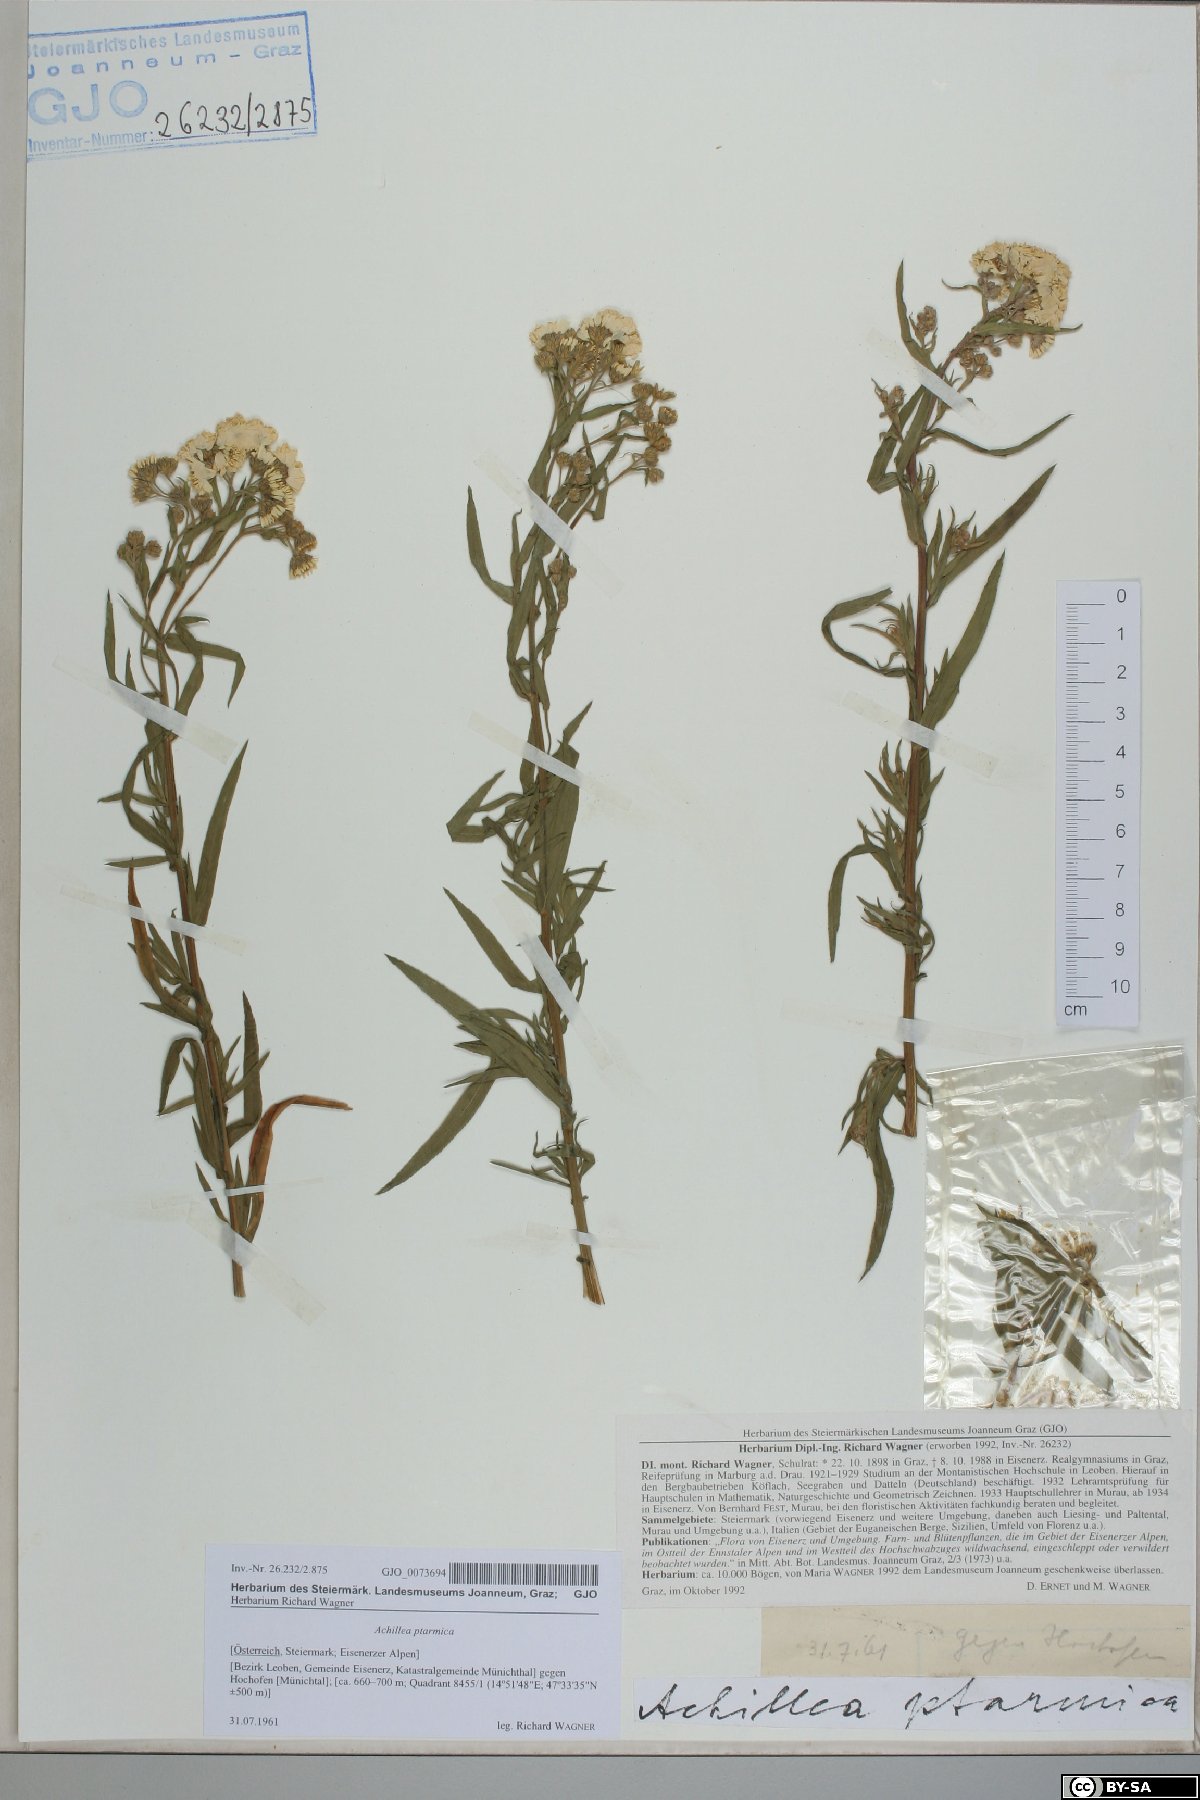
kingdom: Plantae
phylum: Tracheophyta
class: Magnoliopsida
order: Asterales
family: Asteraceae
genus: Achillea
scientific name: Achillea ptarmica
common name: Sneezeweed
